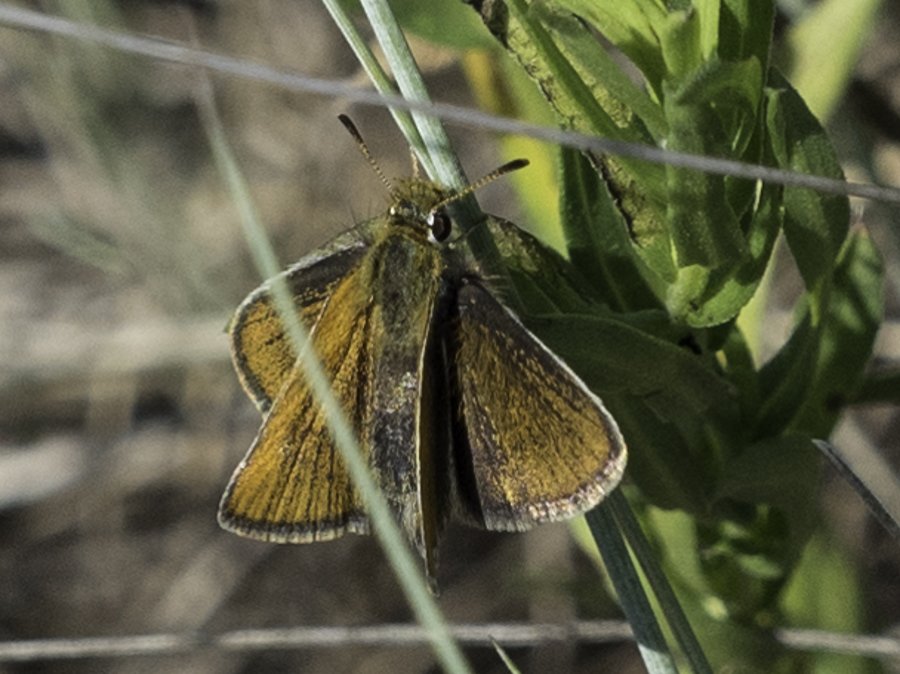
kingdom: Animalia
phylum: Arthropoda
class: Insecta
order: Lepidoptera
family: Hesperiidae
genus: Oarisma
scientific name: Oarisma garita
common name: Garita Skipperling
